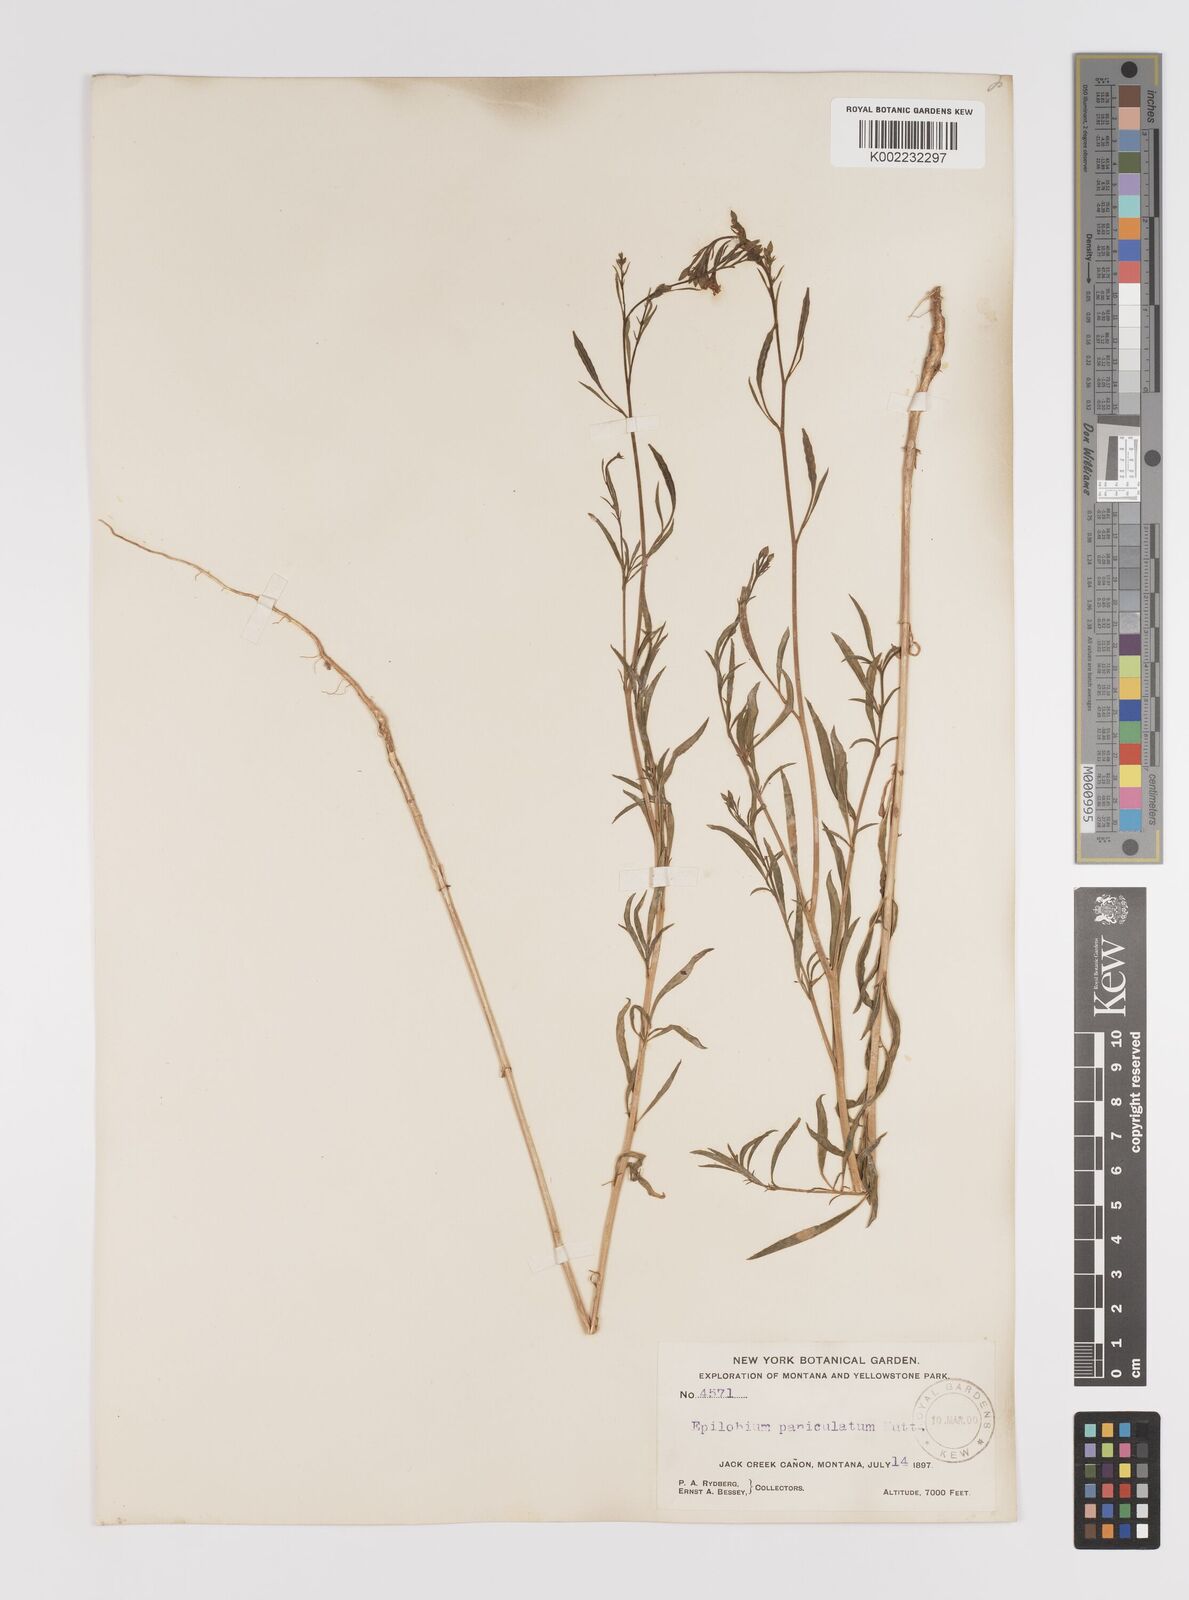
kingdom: Plantae
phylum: Tracheophyta
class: Magnoliopsida
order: Myrtales
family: Onagraceae
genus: Epilobium
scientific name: Epilobium
